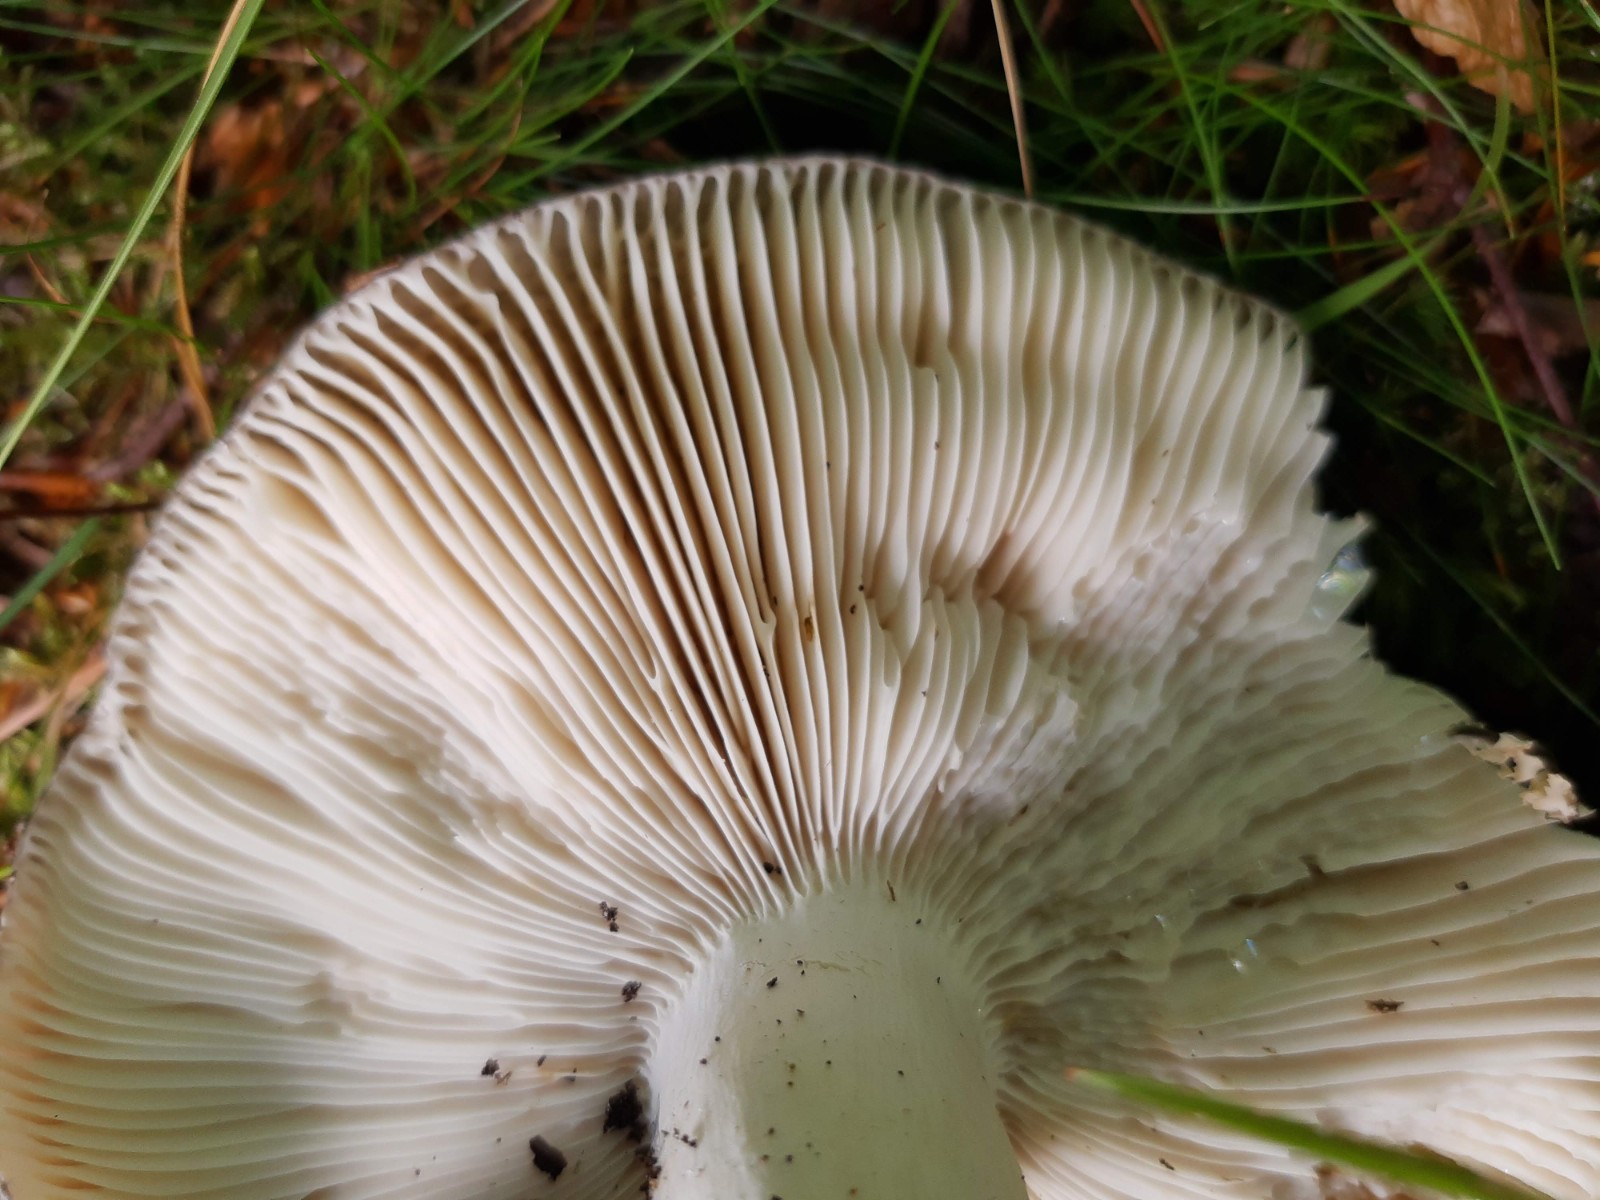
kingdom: Fungi
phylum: Basidiomycota
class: Agaricomycetes
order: Russulales
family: Russulaceae
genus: Russula
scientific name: Russula heterophylla
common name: gaffelbladet skørhat
